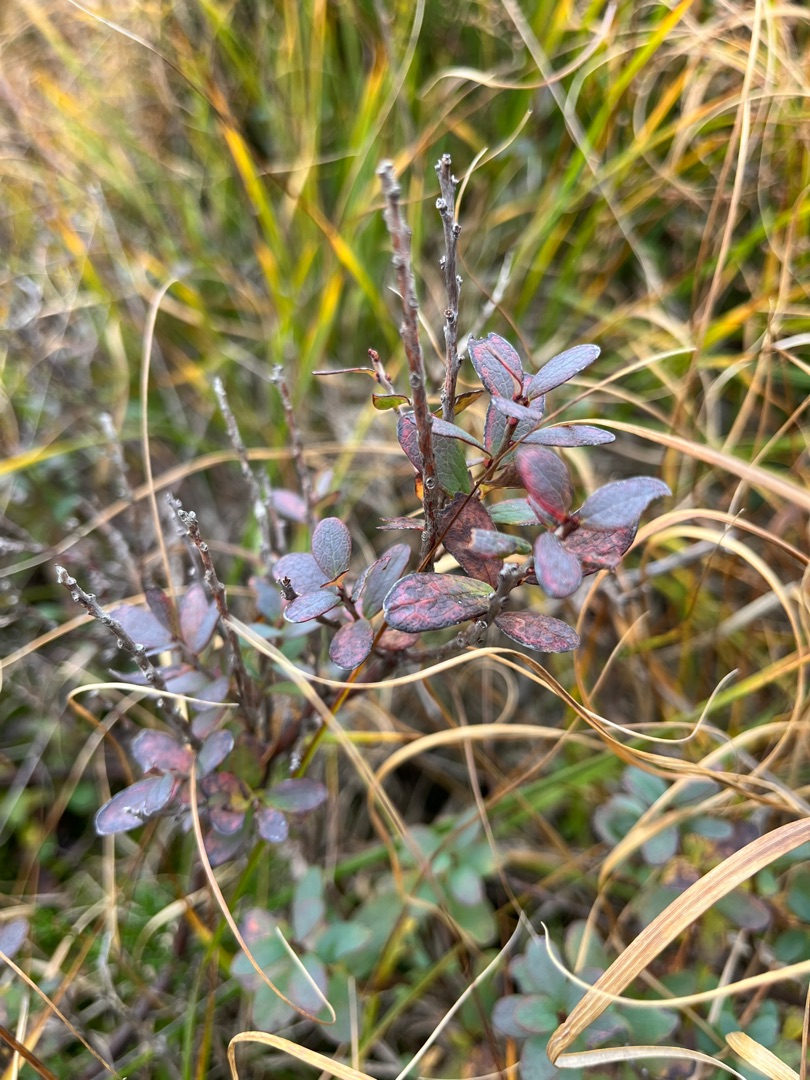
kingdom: Plantae
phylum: Tracheophyta
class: Magnoliopsida
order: Ericales
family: Ericaceae
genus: Vaccinium
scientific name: Vaccinium uliginosum
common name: Mose-bølle
